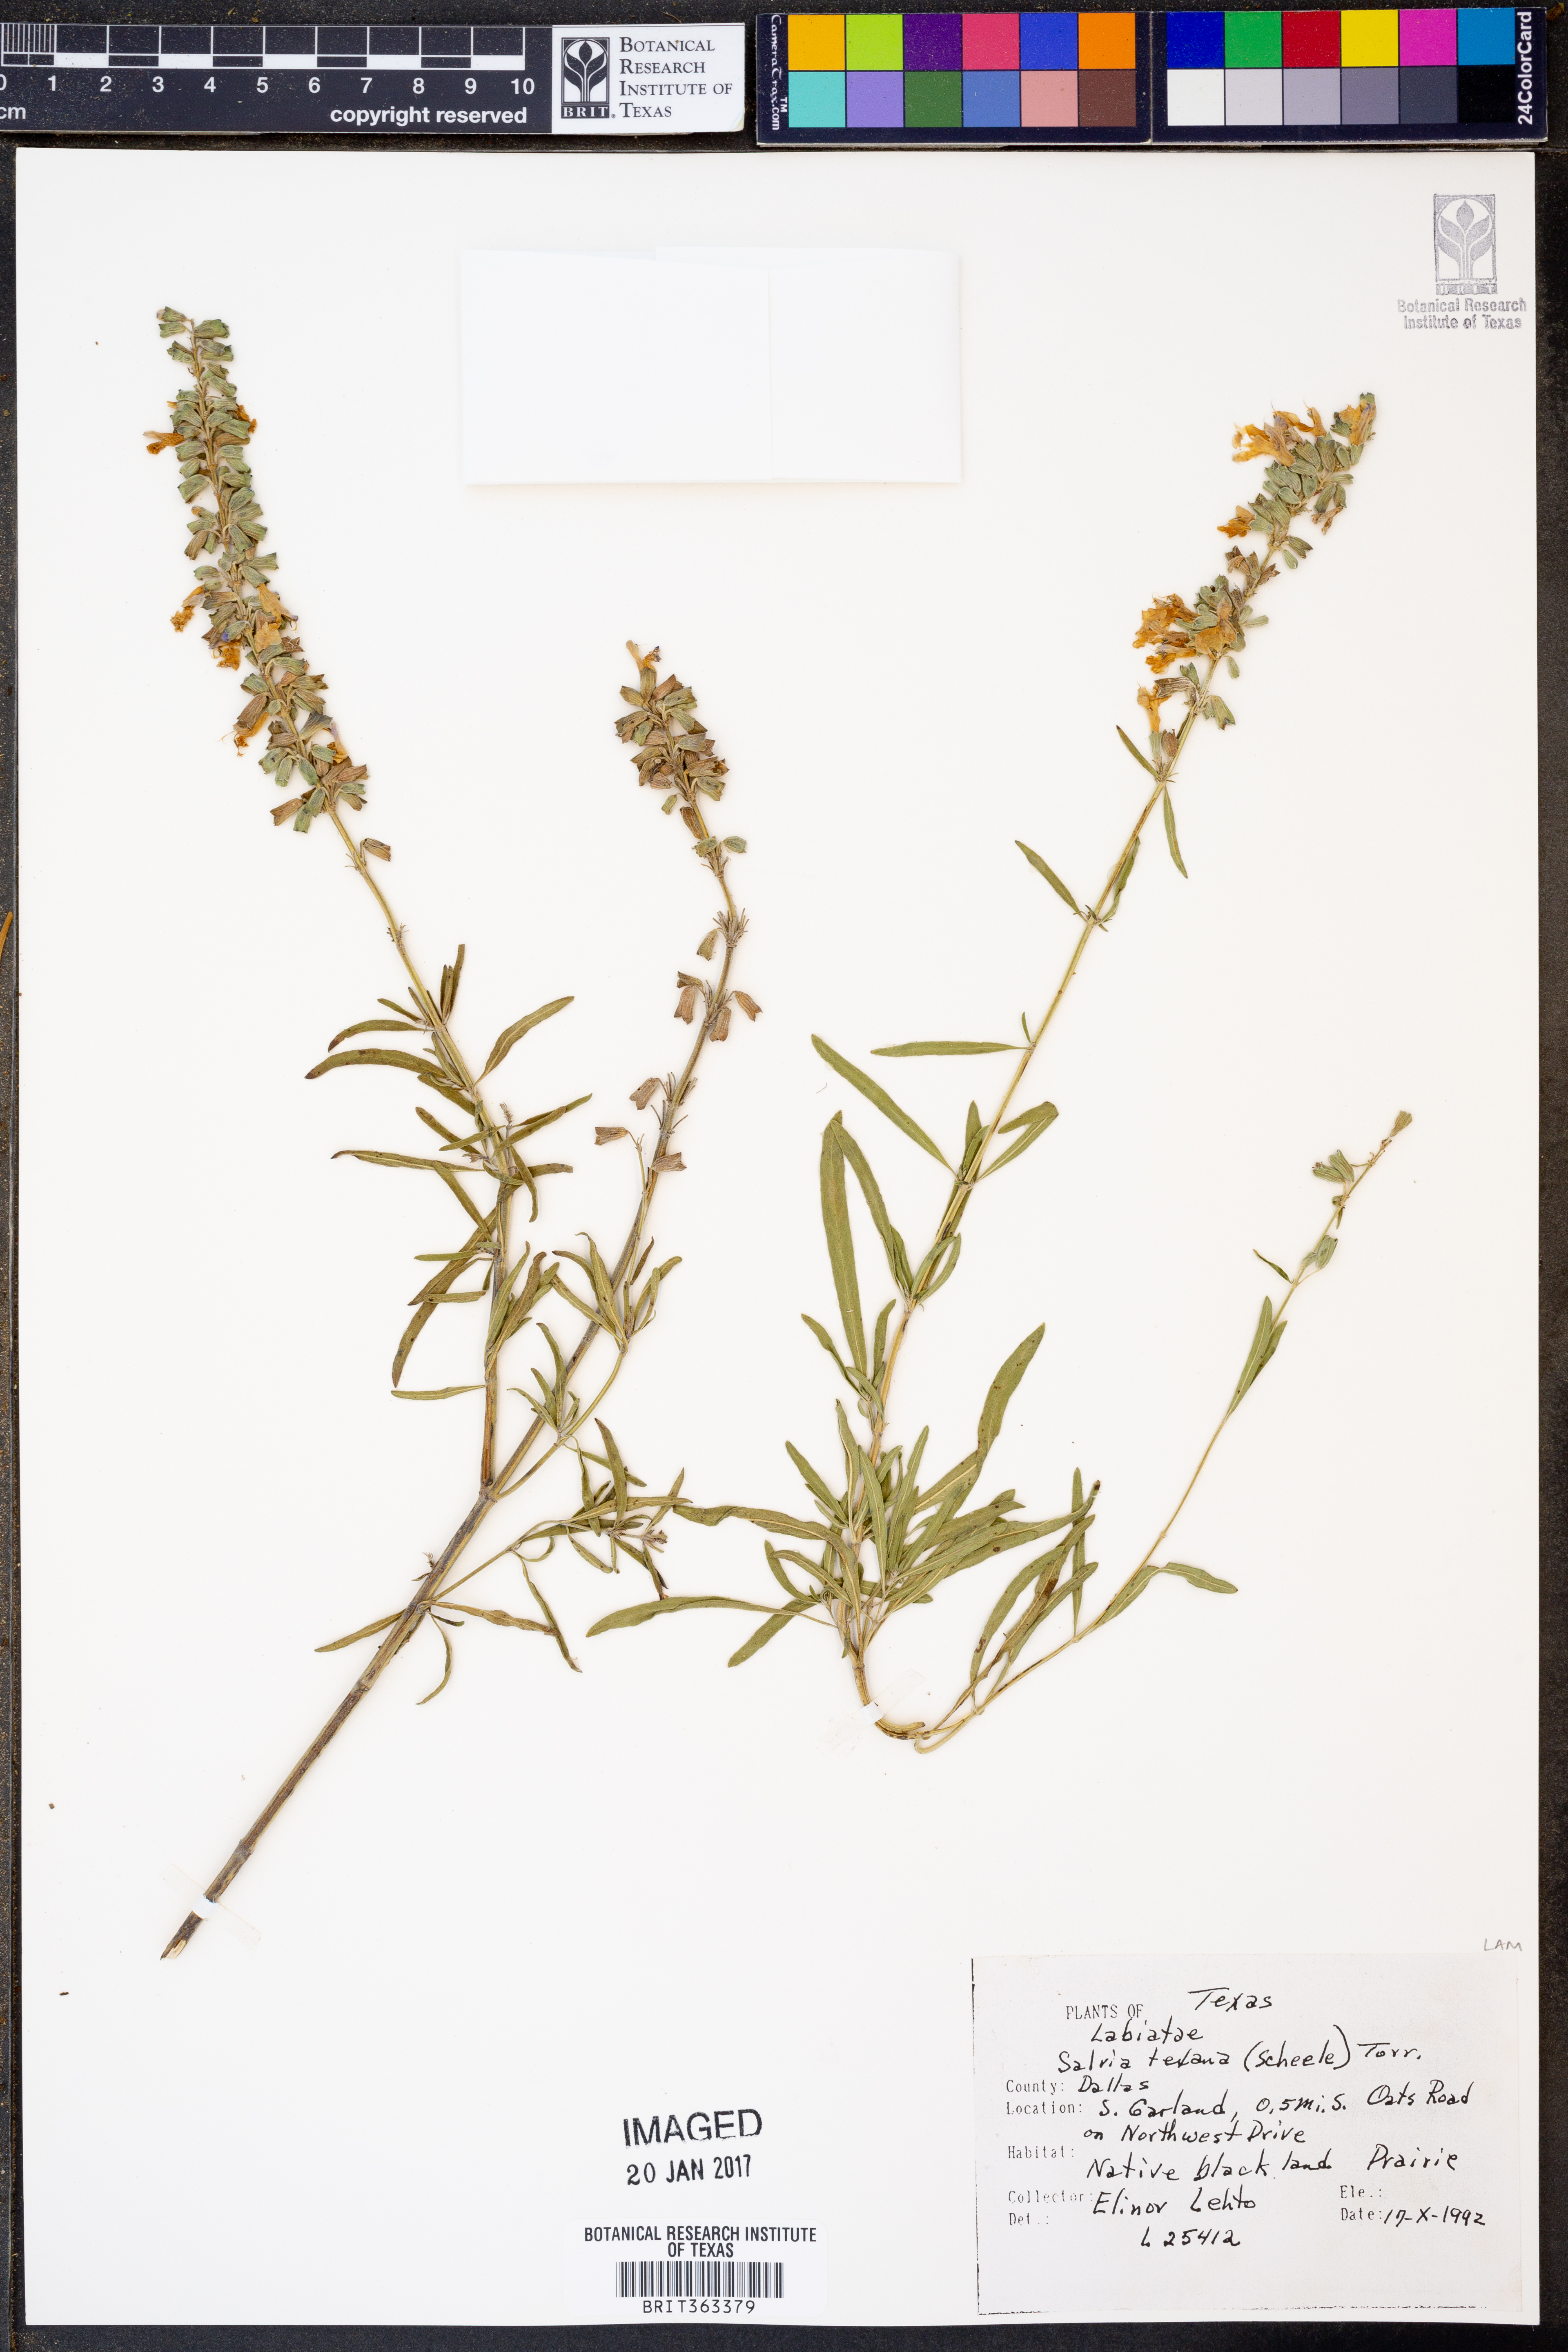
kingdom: Plantae
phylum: Tracheophyta
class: Magnoliopsida
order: Lamiales
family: Lamiaceae
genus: Salvia
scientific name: Salvia texana
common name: Texas sage
